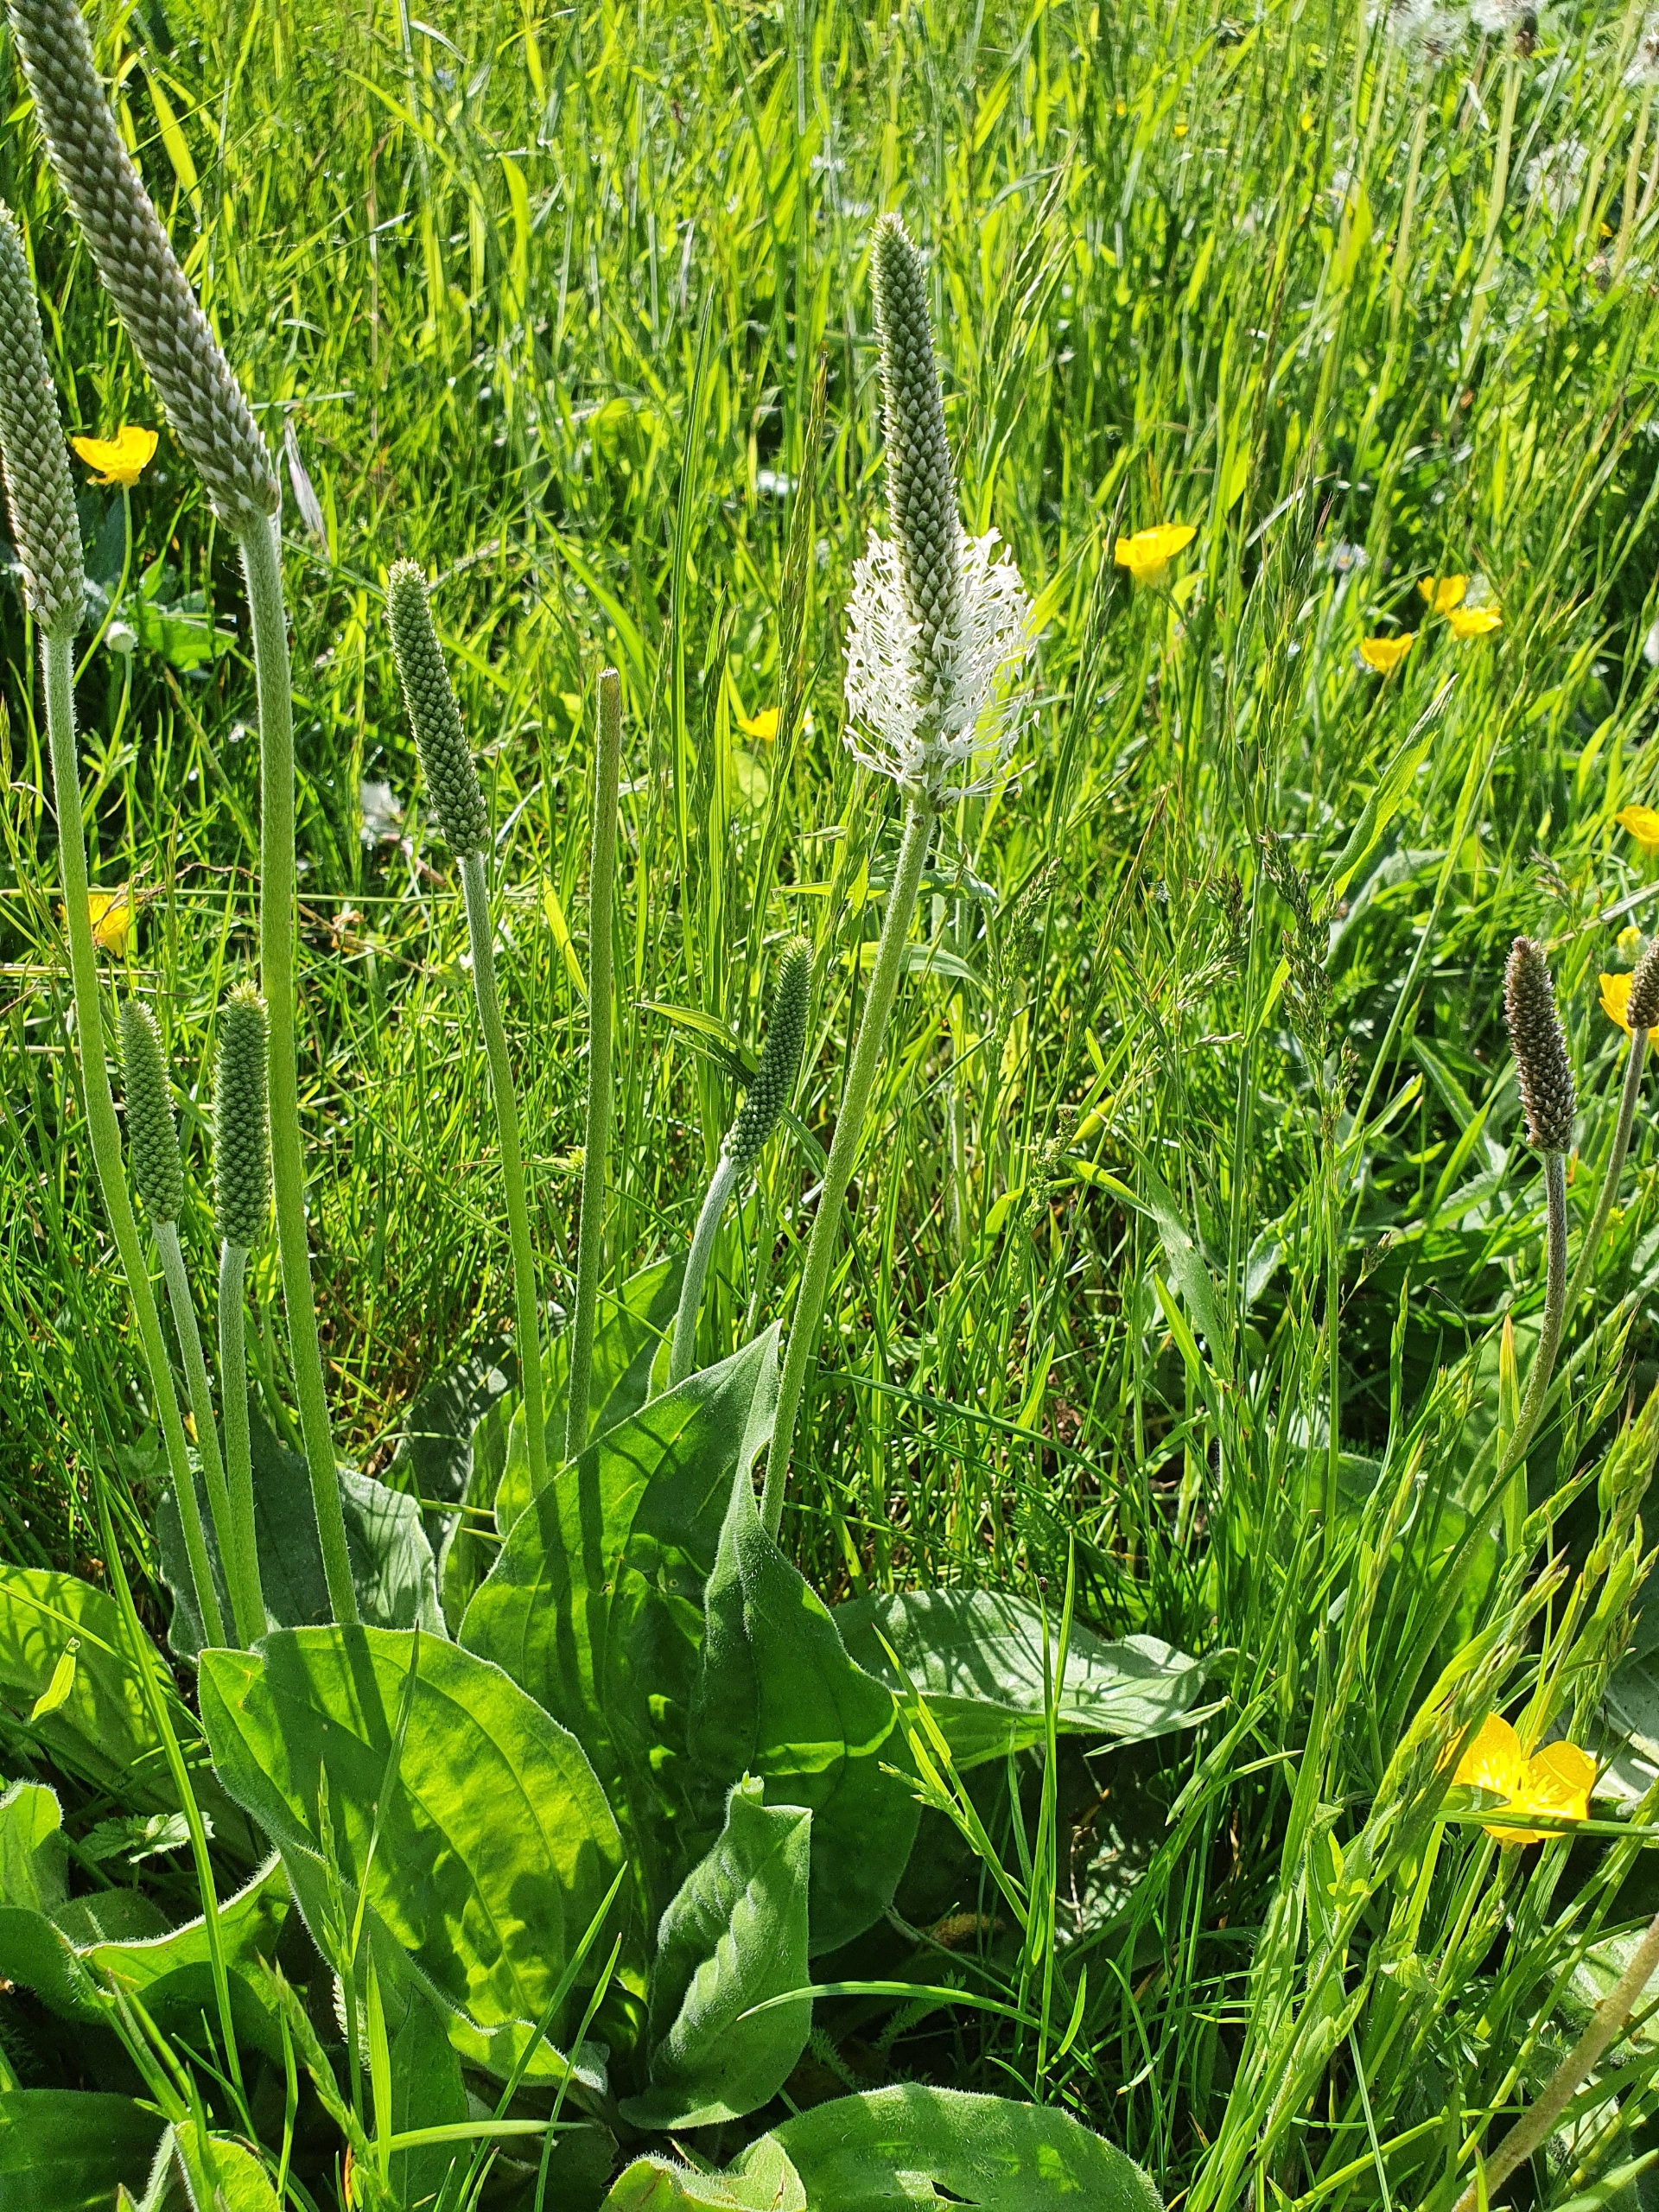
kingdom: Plantae
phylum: Tracheophyta
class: Magnoliopsida
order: Lamiales
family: Plantaginaceae
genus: Plantago
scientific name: Plantago media
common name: Dunet vejbred
